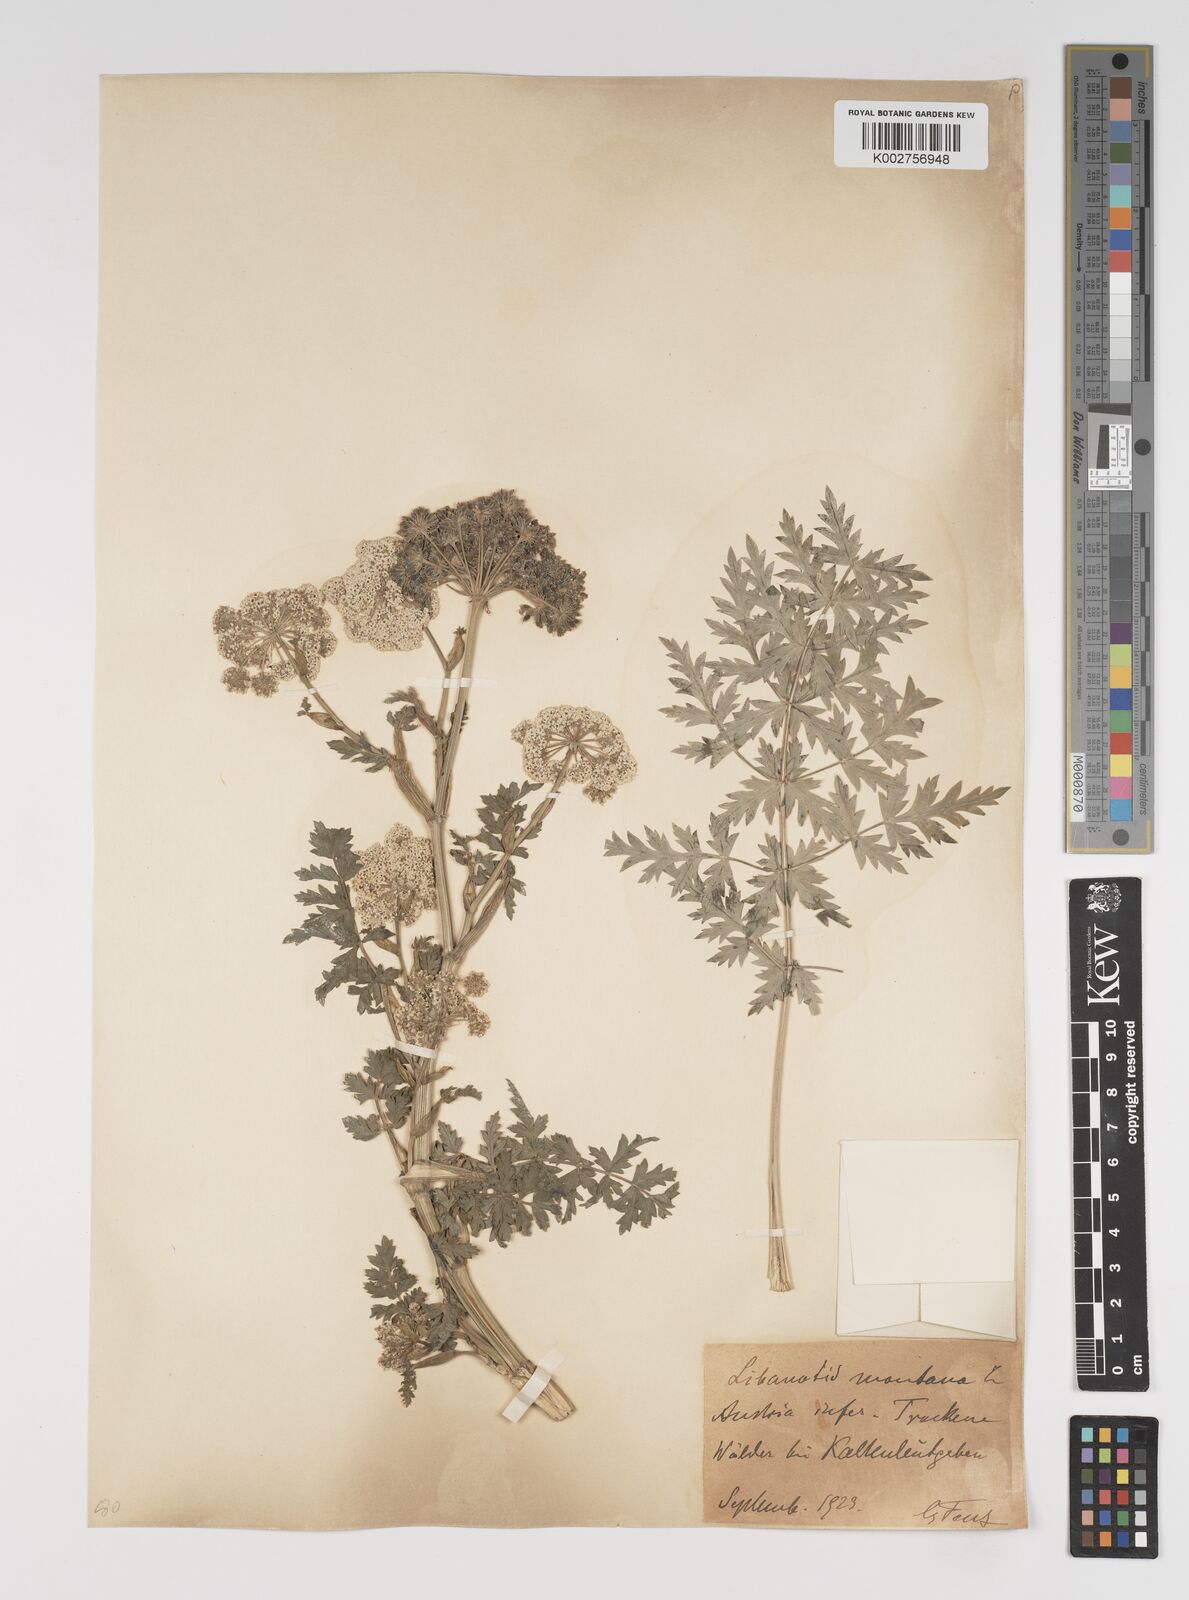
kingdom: Plantae
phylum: Tracheophyta
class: Magnoliopsida
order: Apiales
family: Apiaceae
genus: Seseli
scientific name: Seseli libanotis
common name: Mooncarrot
